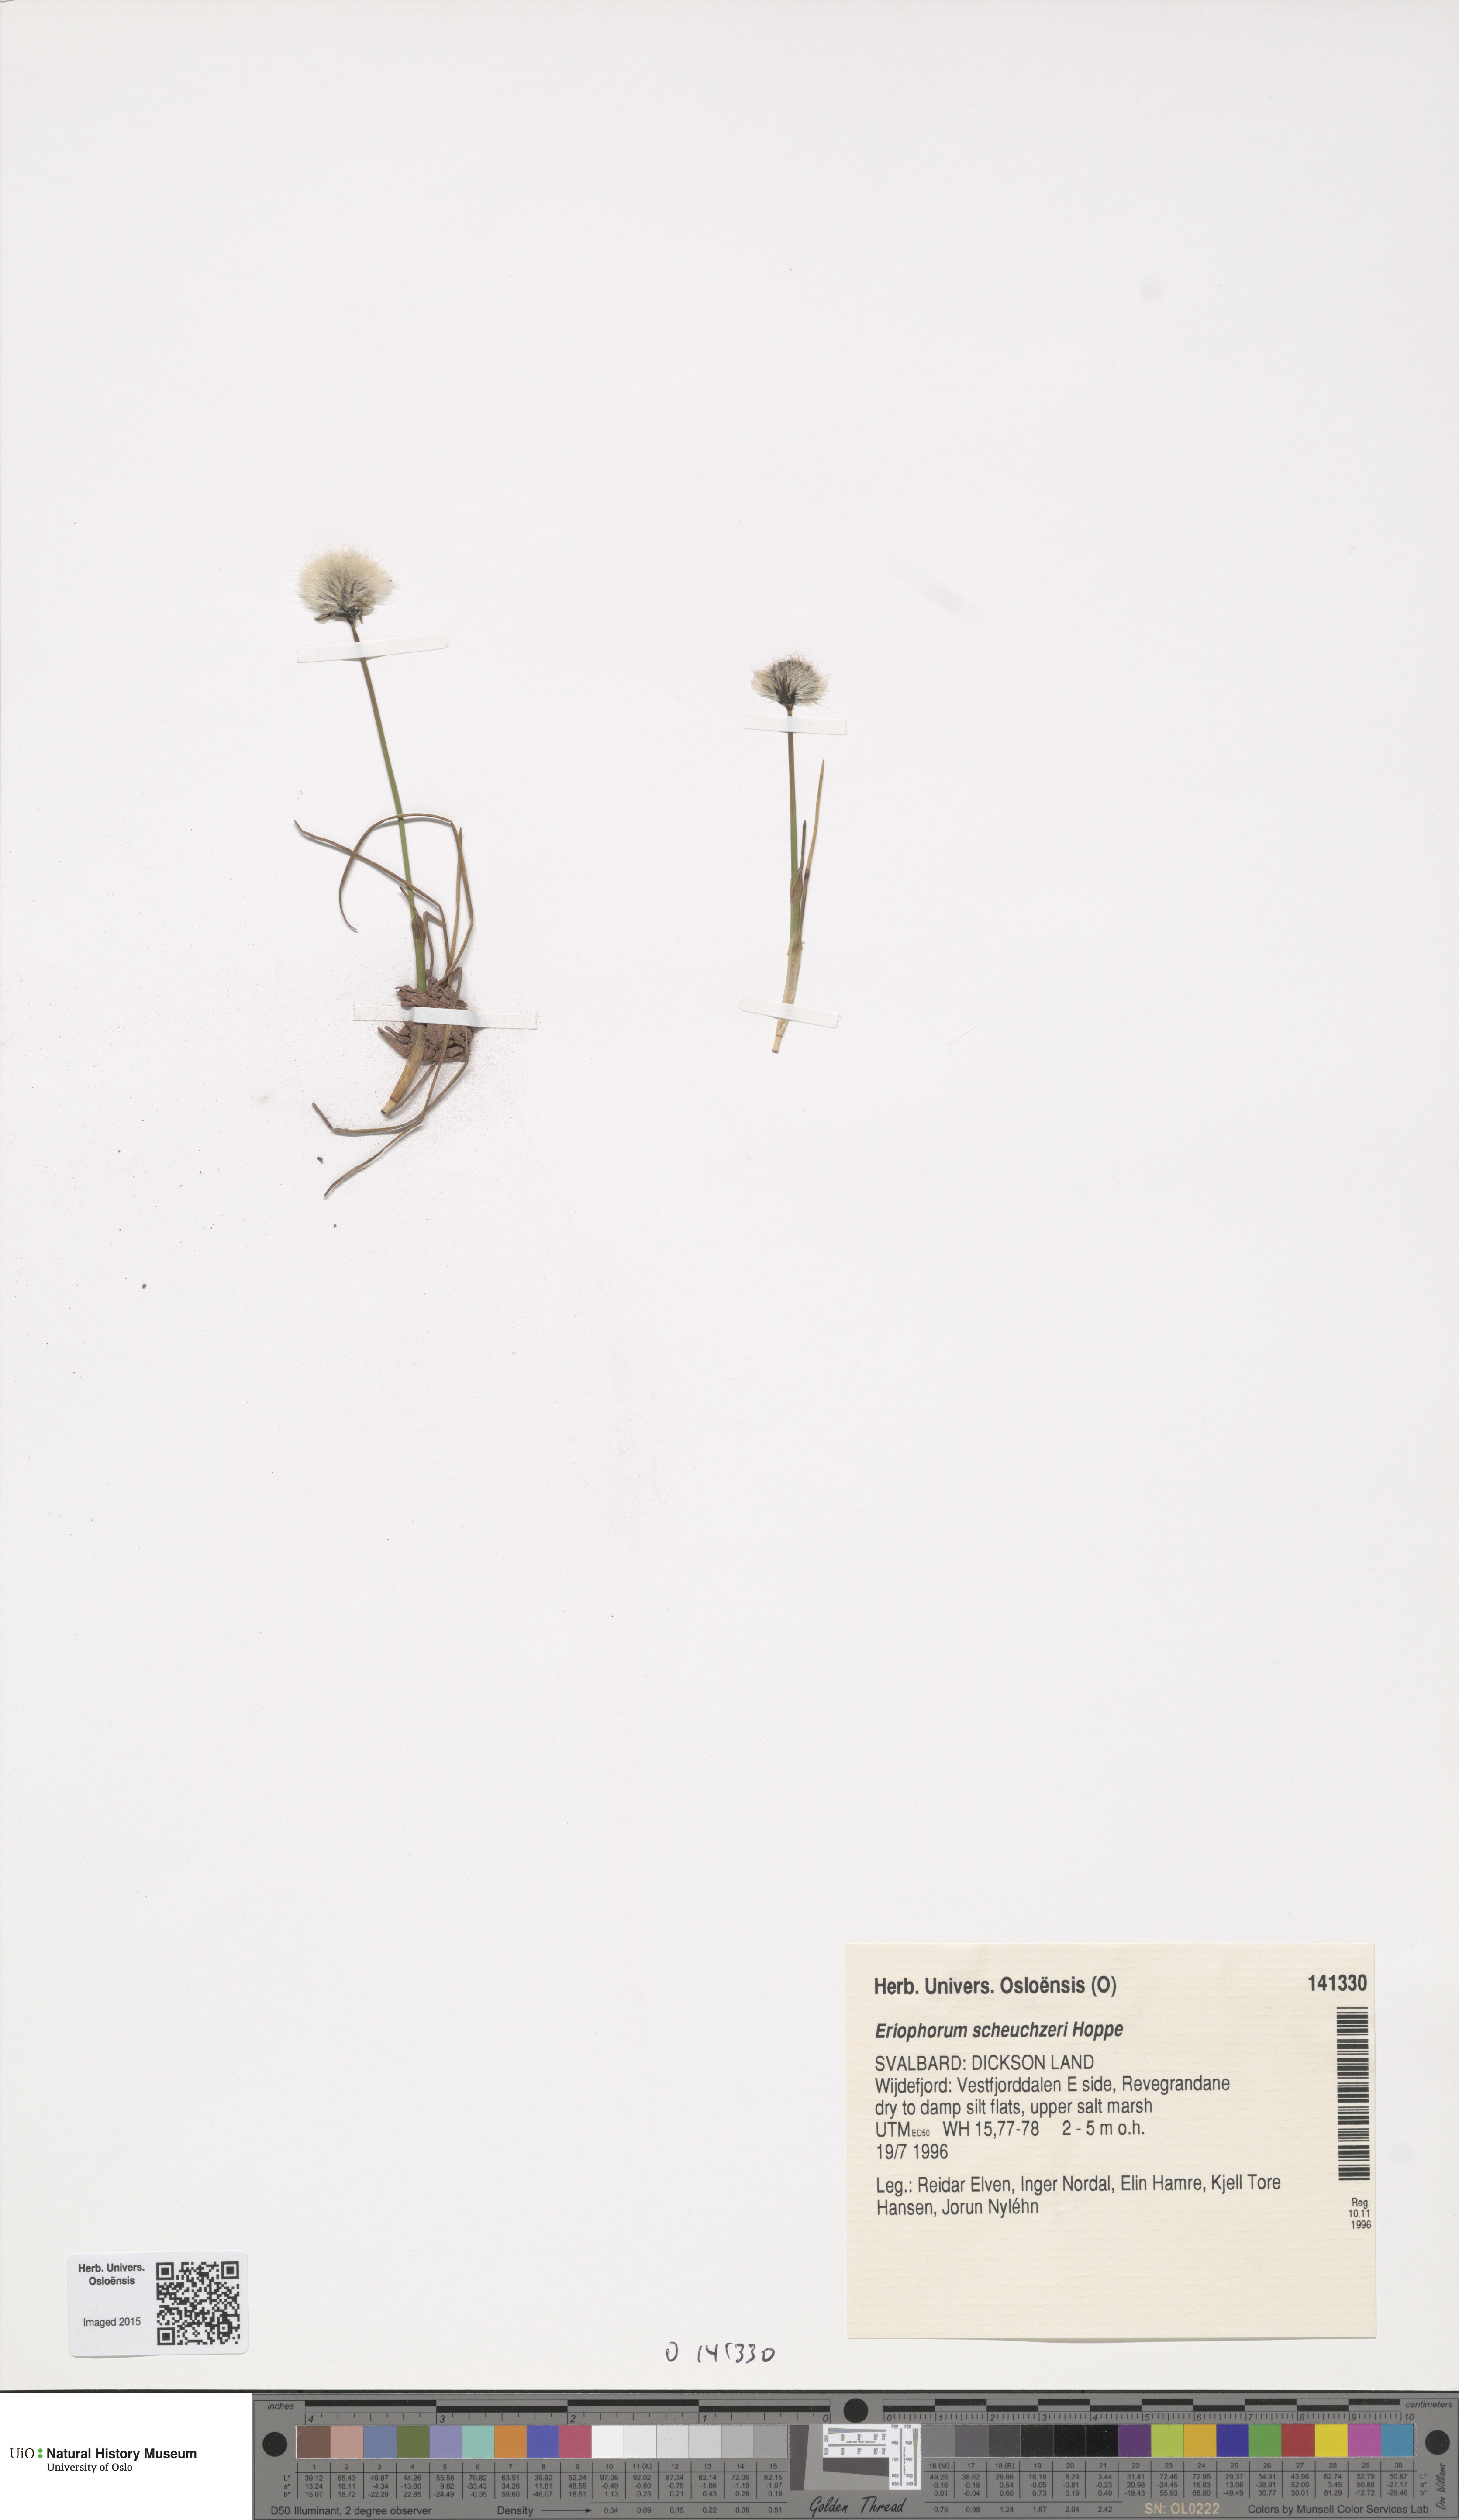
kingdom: Plantae
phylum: Tracheophyta
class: Liliopsida
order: Poales
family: Cyperaceae
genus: Eriophorum
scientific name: Eriophorum scheuchzeri
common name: Scheuchzer's cottongrass
